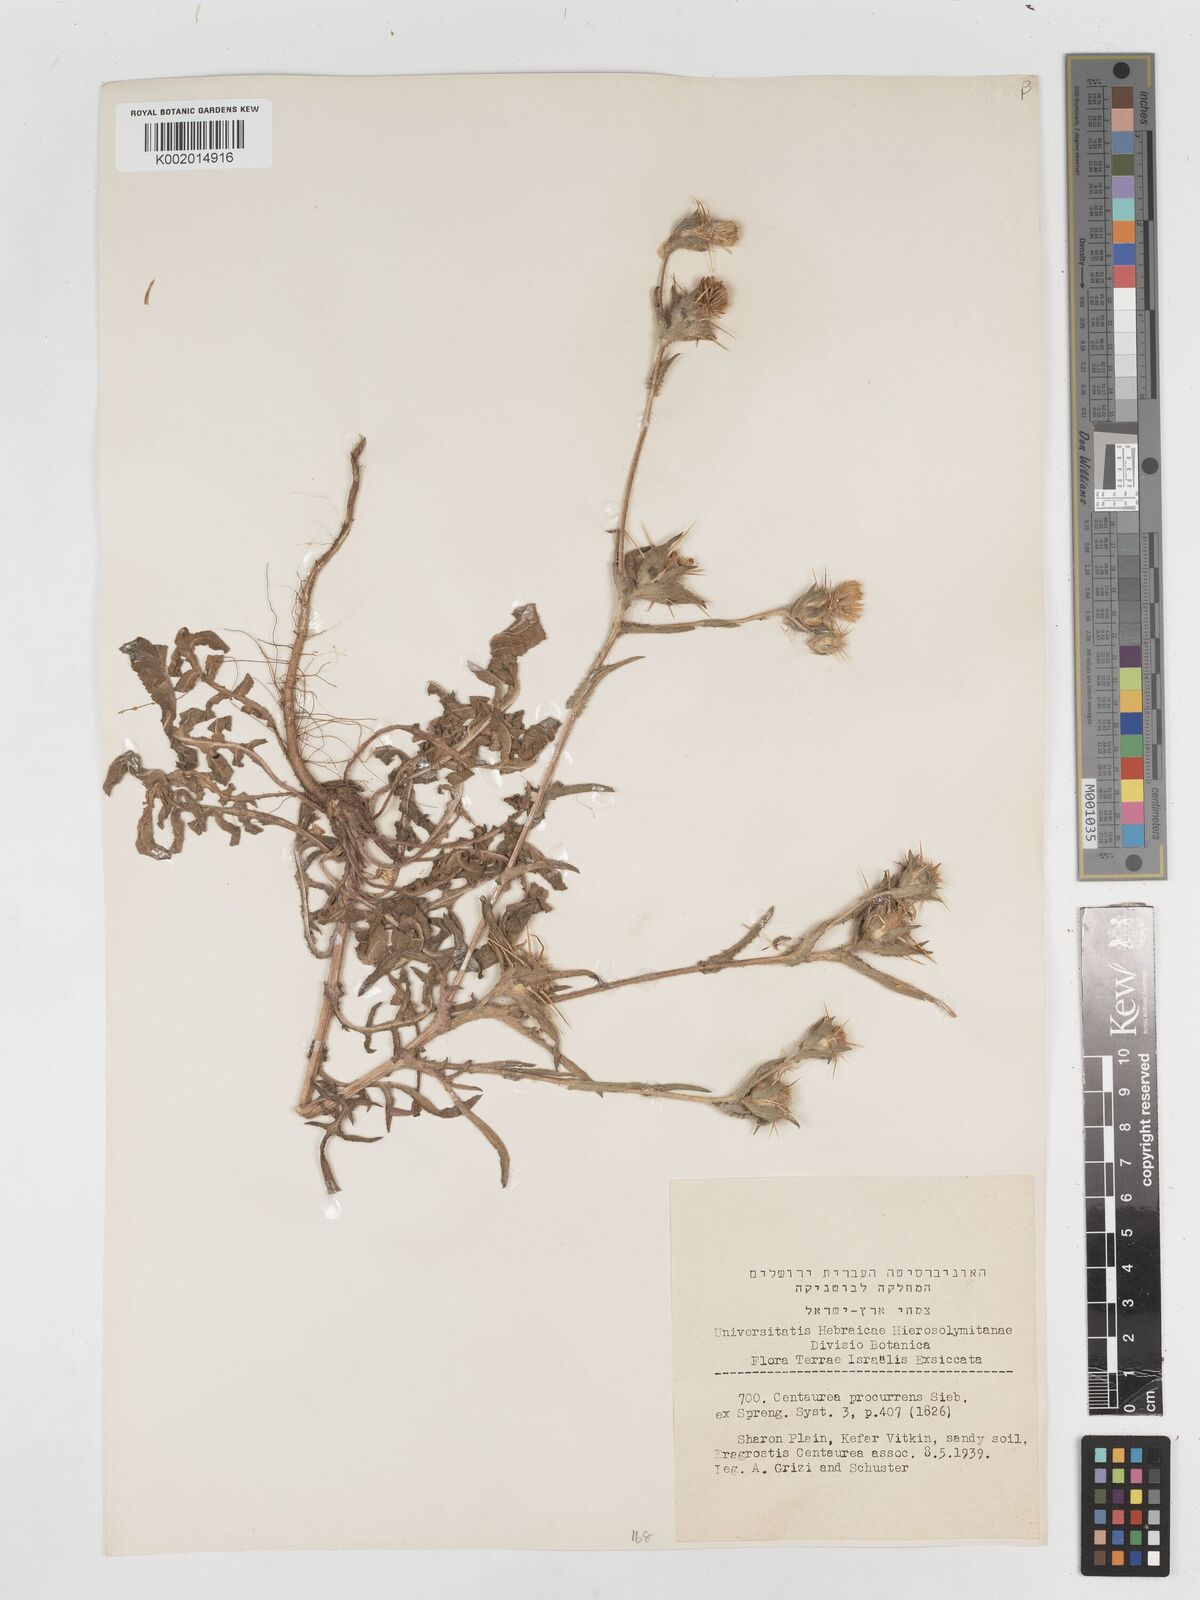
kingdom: Plantae
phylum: Tracheophyta
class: Magnoliopsida
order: Asterales
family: Asteraceae
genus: Centaurea
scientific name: Centaurea procurrens
